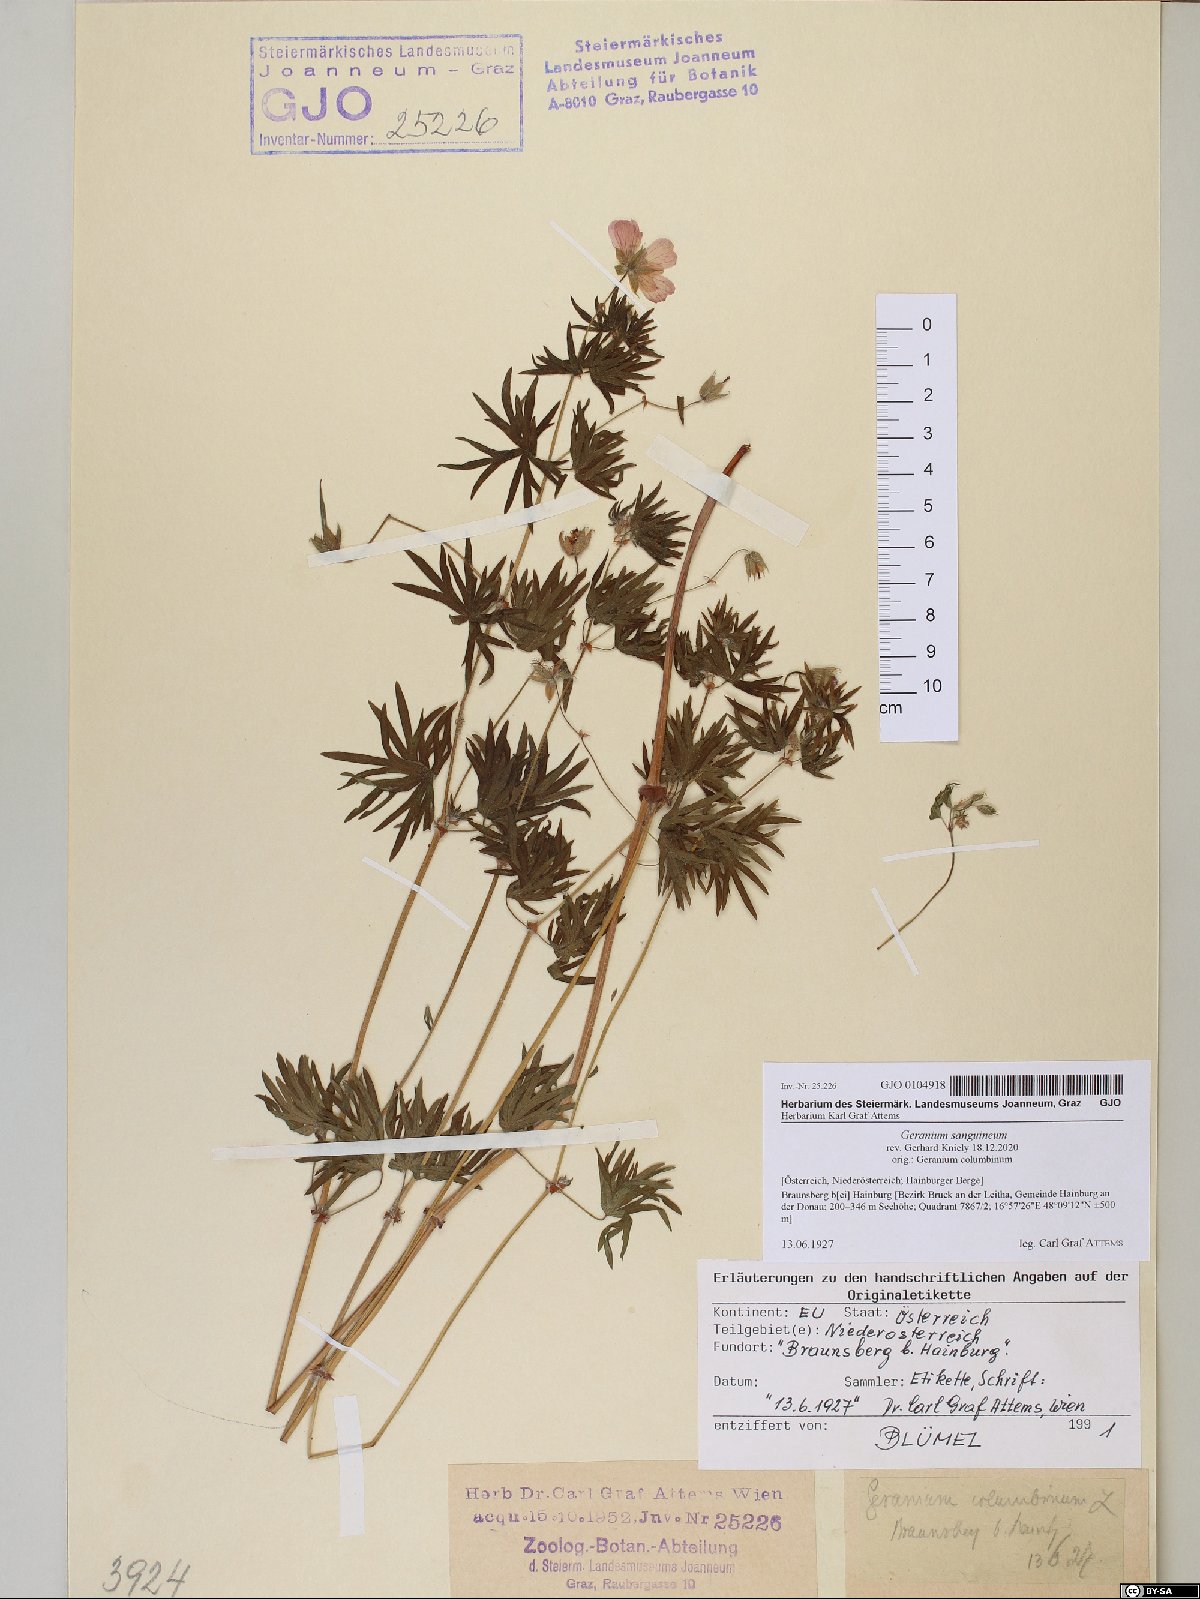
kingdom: Plantae
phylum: Tracheophyta
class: Magnoliopsida
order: Geraniales
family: Geraniaceae
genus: Geranium
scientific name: Geranium sanguineum
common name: Bloody crane's-bill
